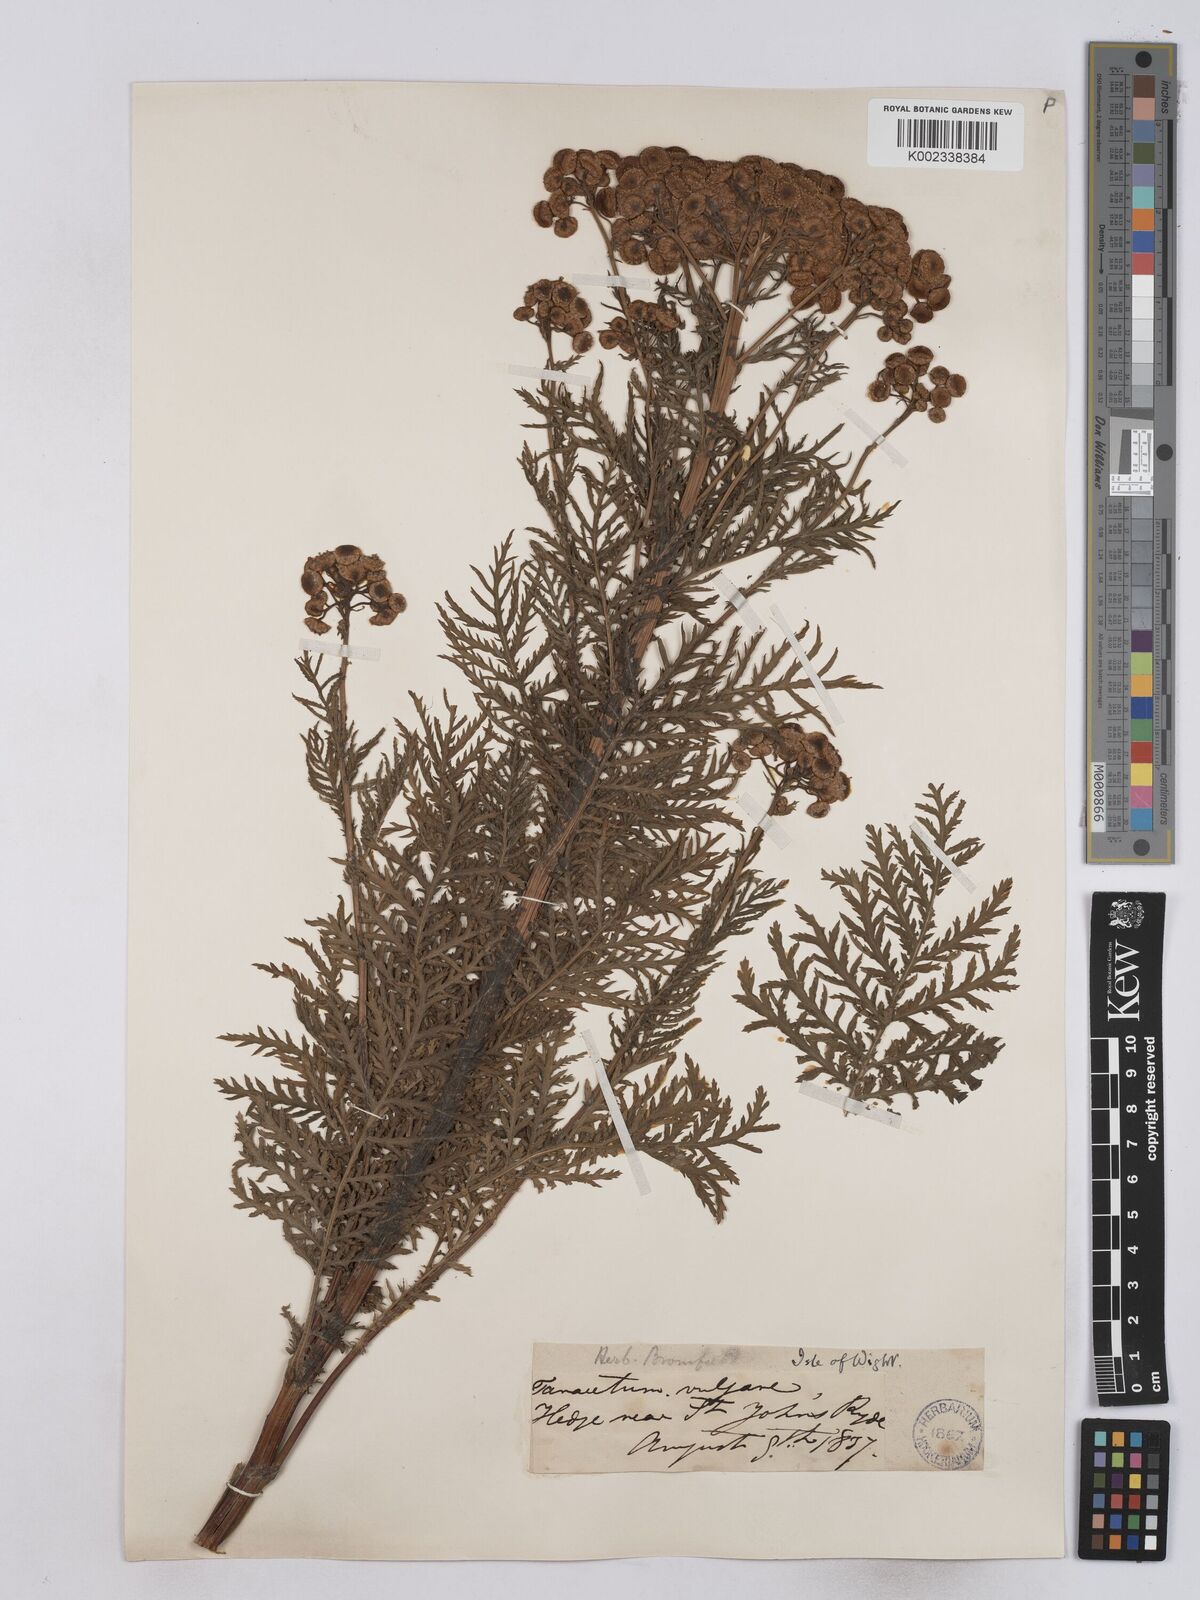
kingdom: Plantae
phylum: Tracheophyta
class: Magnoliopsida
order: Asterales
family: Asteraceae
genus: Tanacetum
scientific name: Tanacetum vulgare
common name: Common tansy
